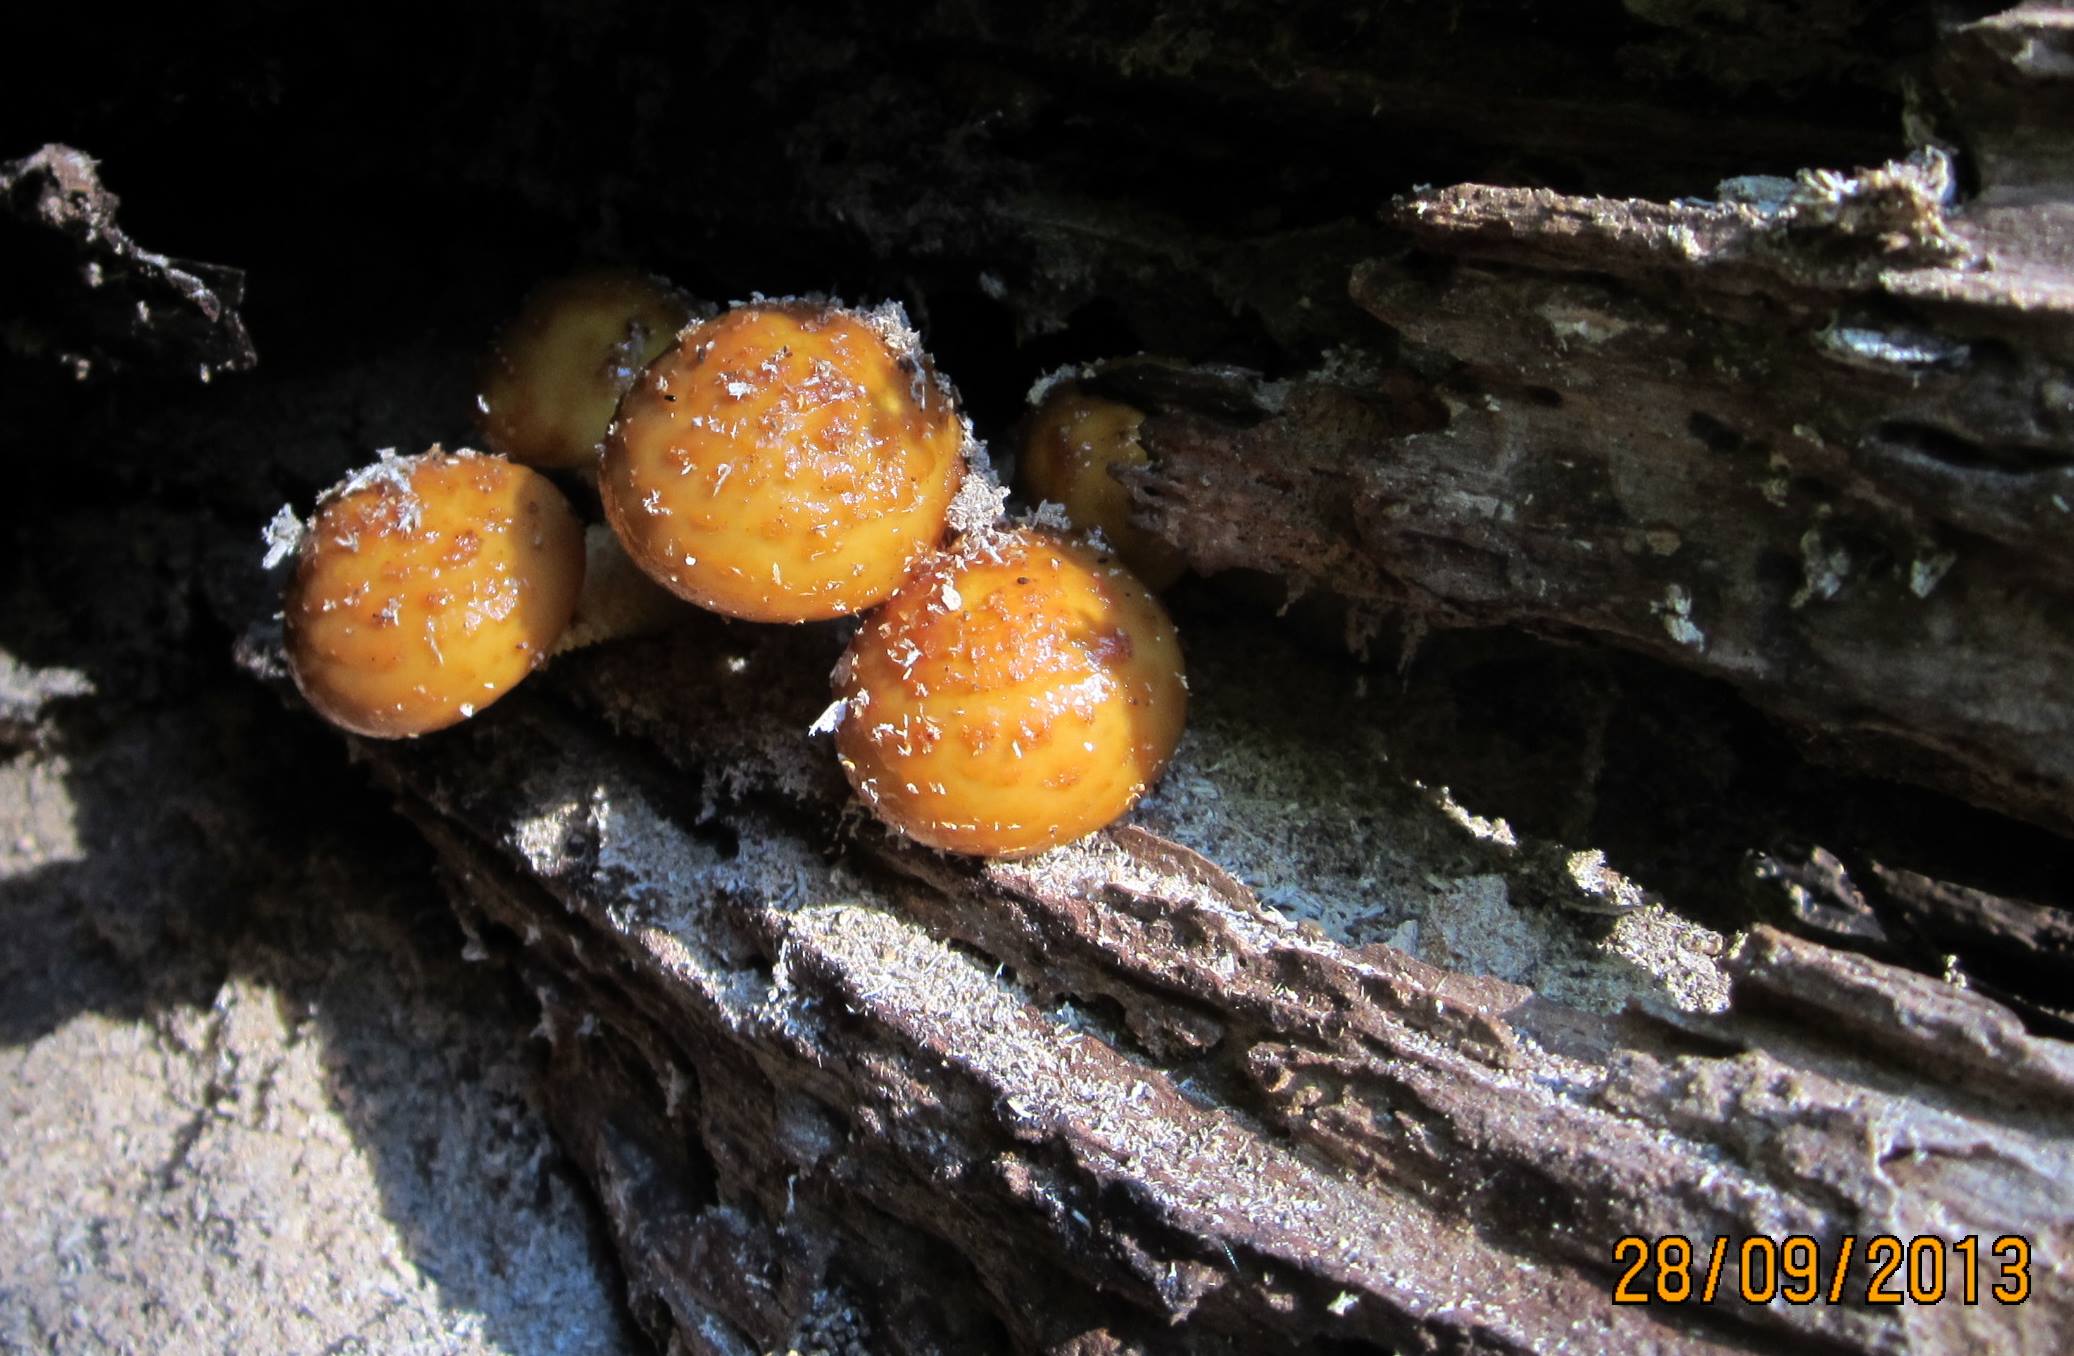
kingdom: Fungi
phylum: Basidiomycota
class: Agaricomycetes
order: Agaricales
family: Strophariaceae
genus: Pholiota
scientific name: Pholiota adiposa
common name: højtsiddende skælhat
